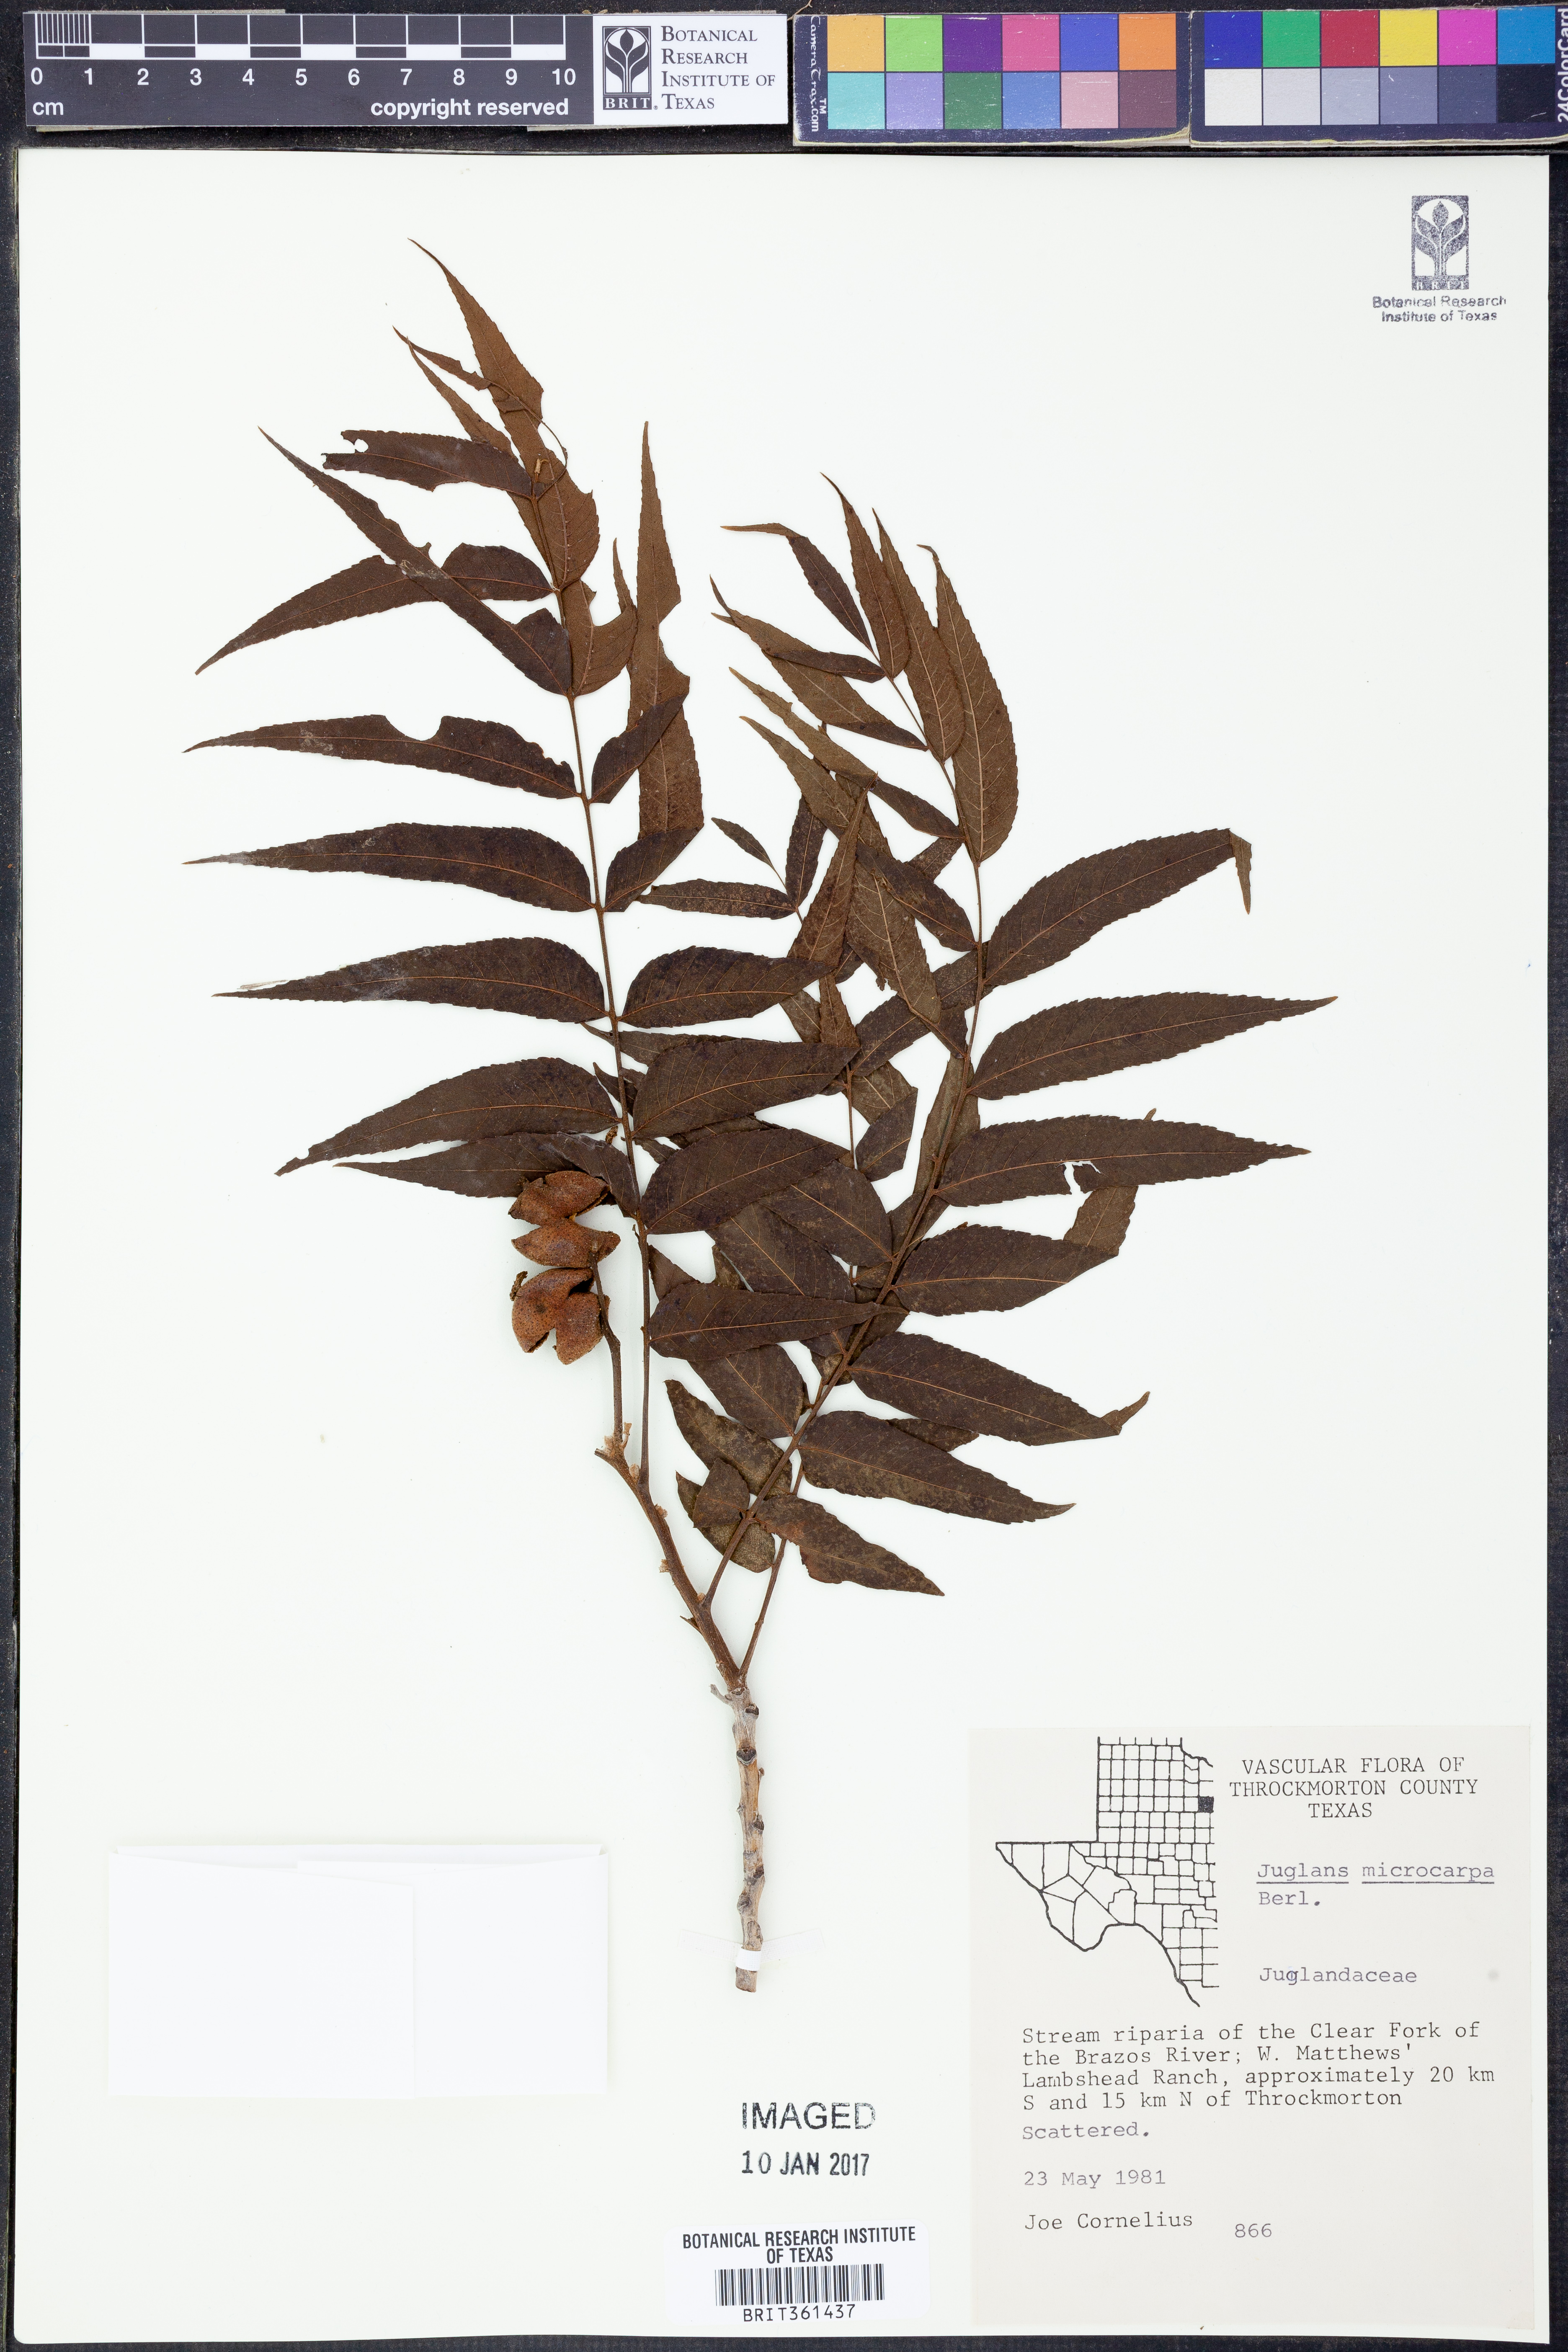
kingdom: Plantae
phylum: Tracheophyta
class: Magnoliopsida
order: Fagales
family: Juglandaceae
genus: Juglans
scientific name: Juglans microcarpa
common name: Texas walnut
